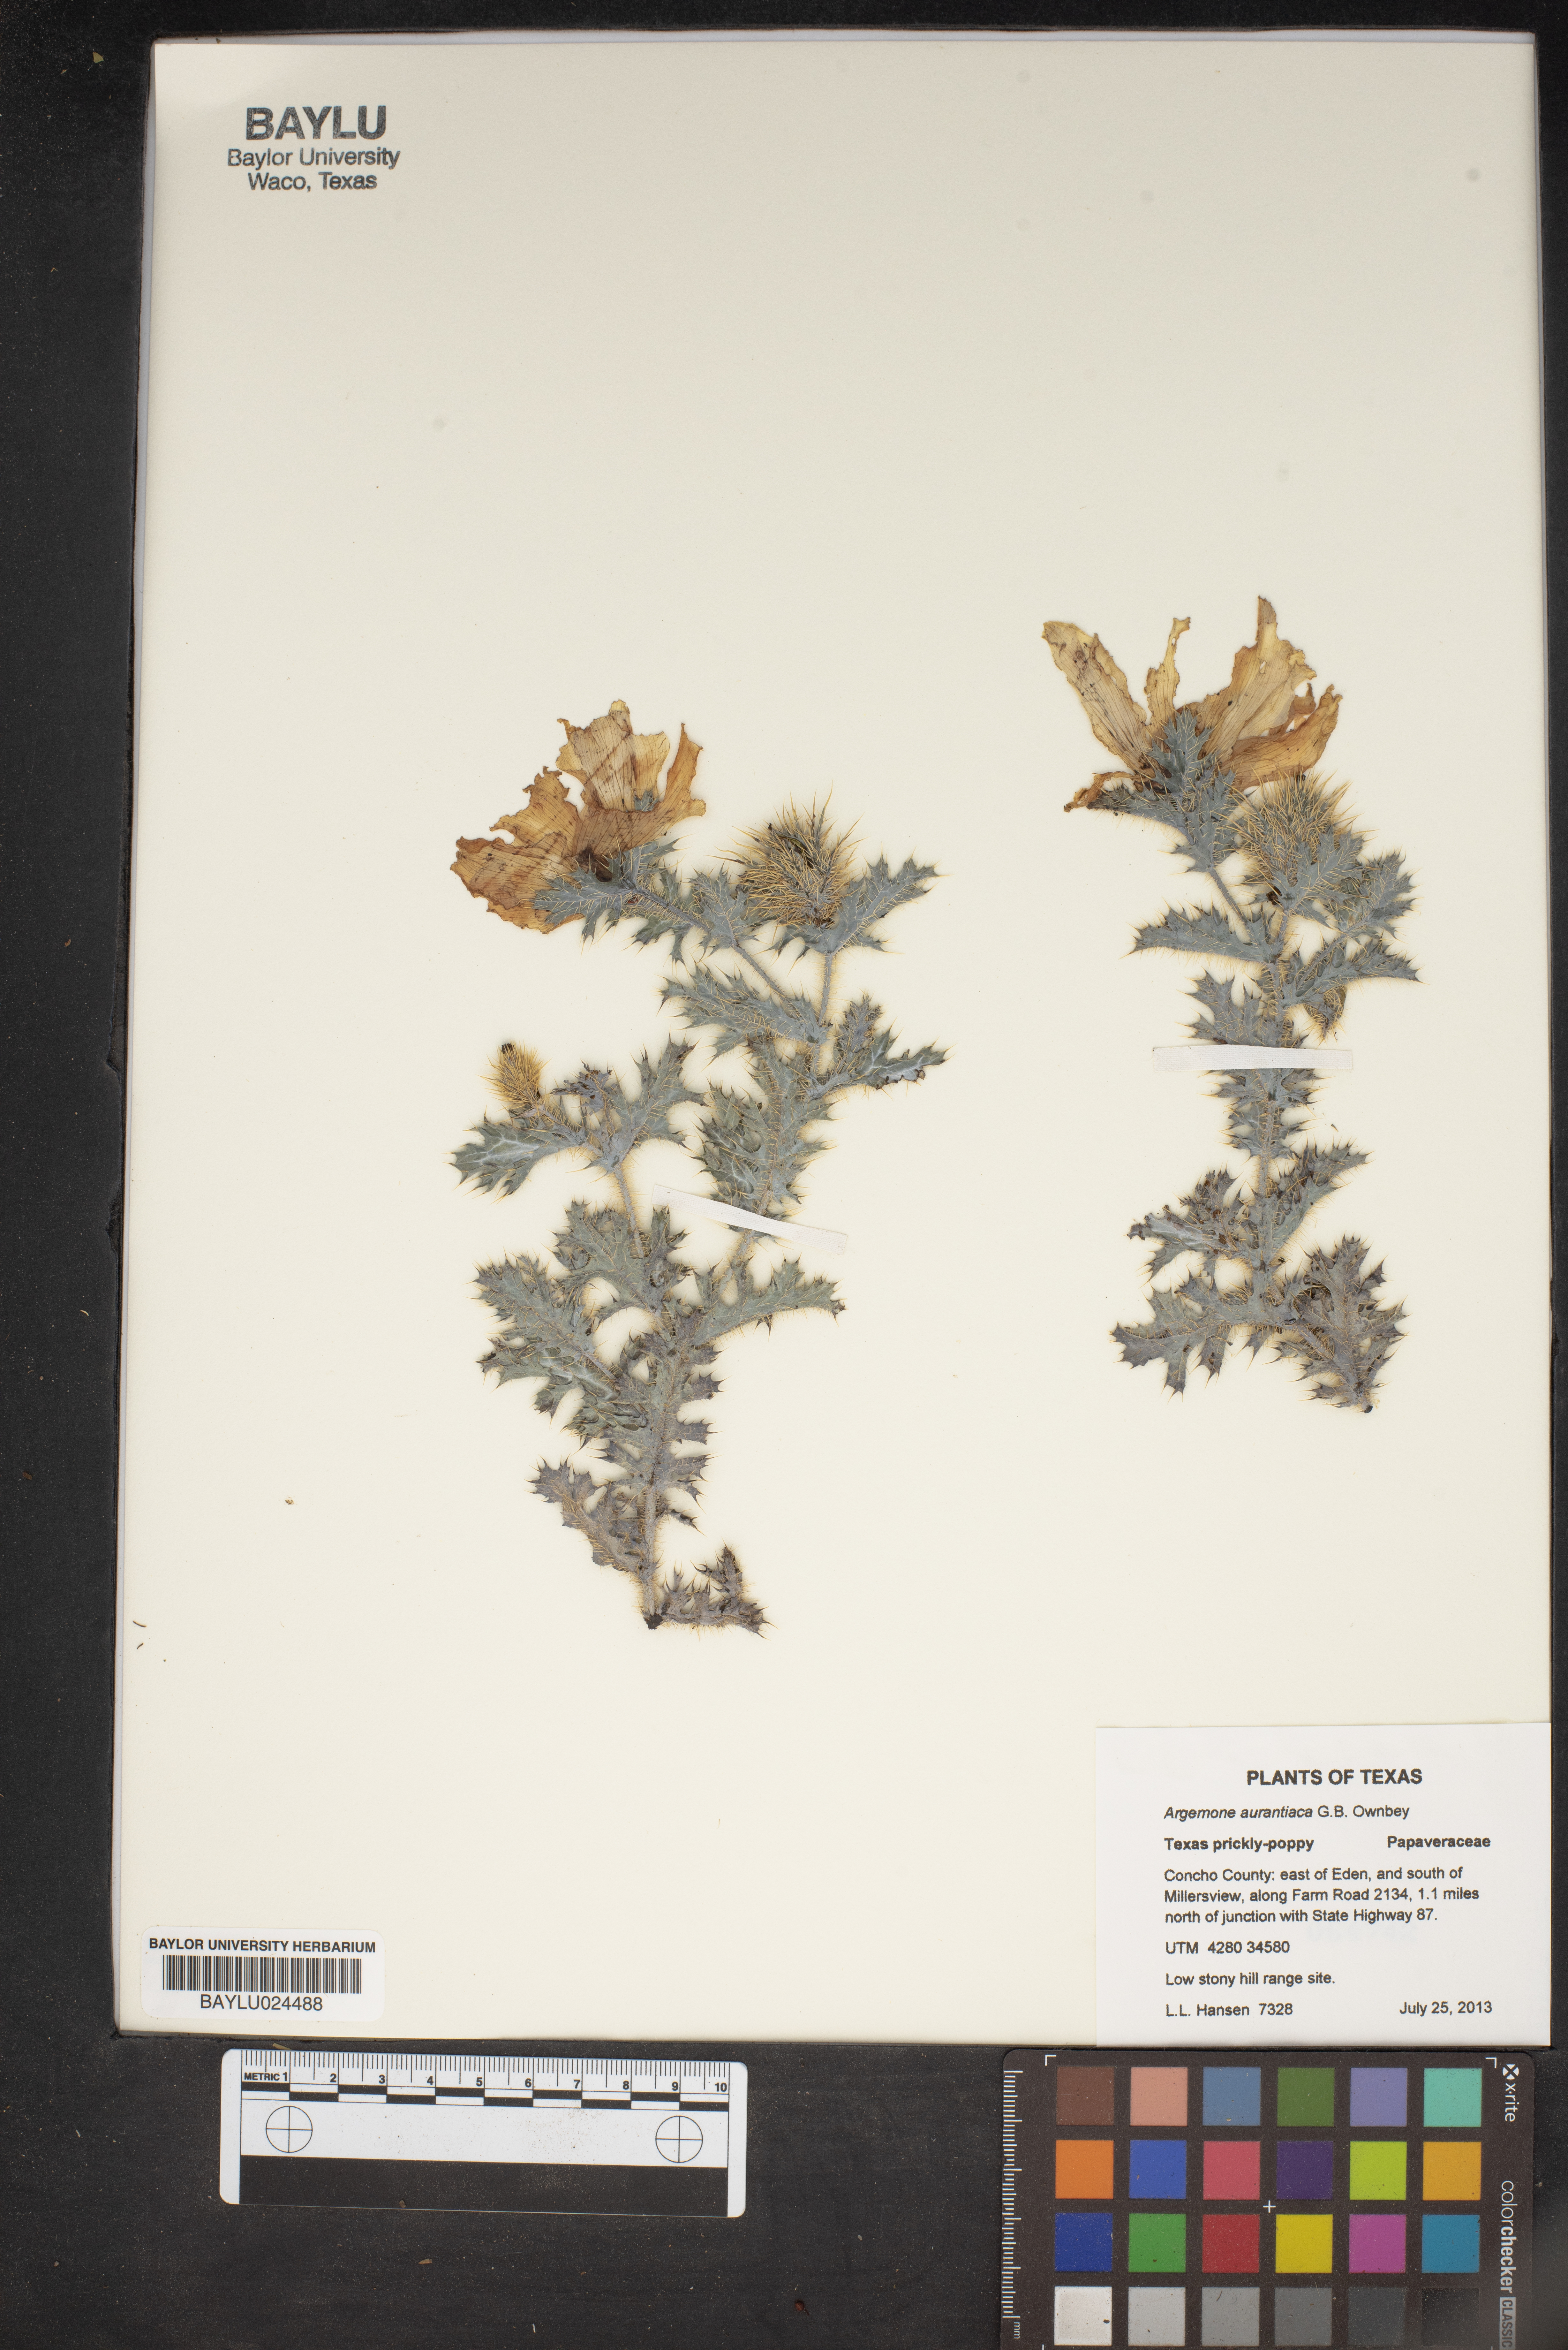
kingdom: Plantae
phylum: Tracheophyta
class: Magnoliopsida
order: Ranunculales
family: Papaveraceae
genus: Argemone
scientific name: Argemone aurantiaca
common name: Texas prickly-poppy
